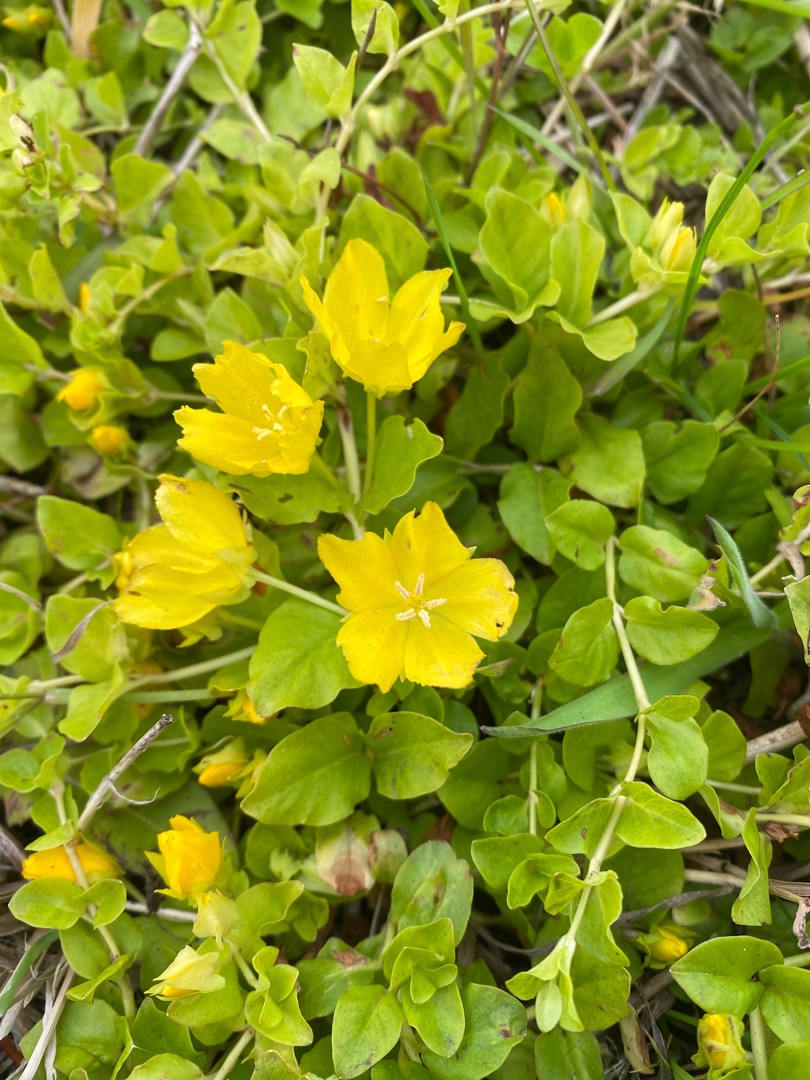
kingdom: Plantae
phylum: Tracheophyta
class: Magnoliopsida
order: Ericales
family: Primulaceae
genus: Lysimachia
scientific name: Lysimachia nummularia
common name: Pengebladet fredløs
